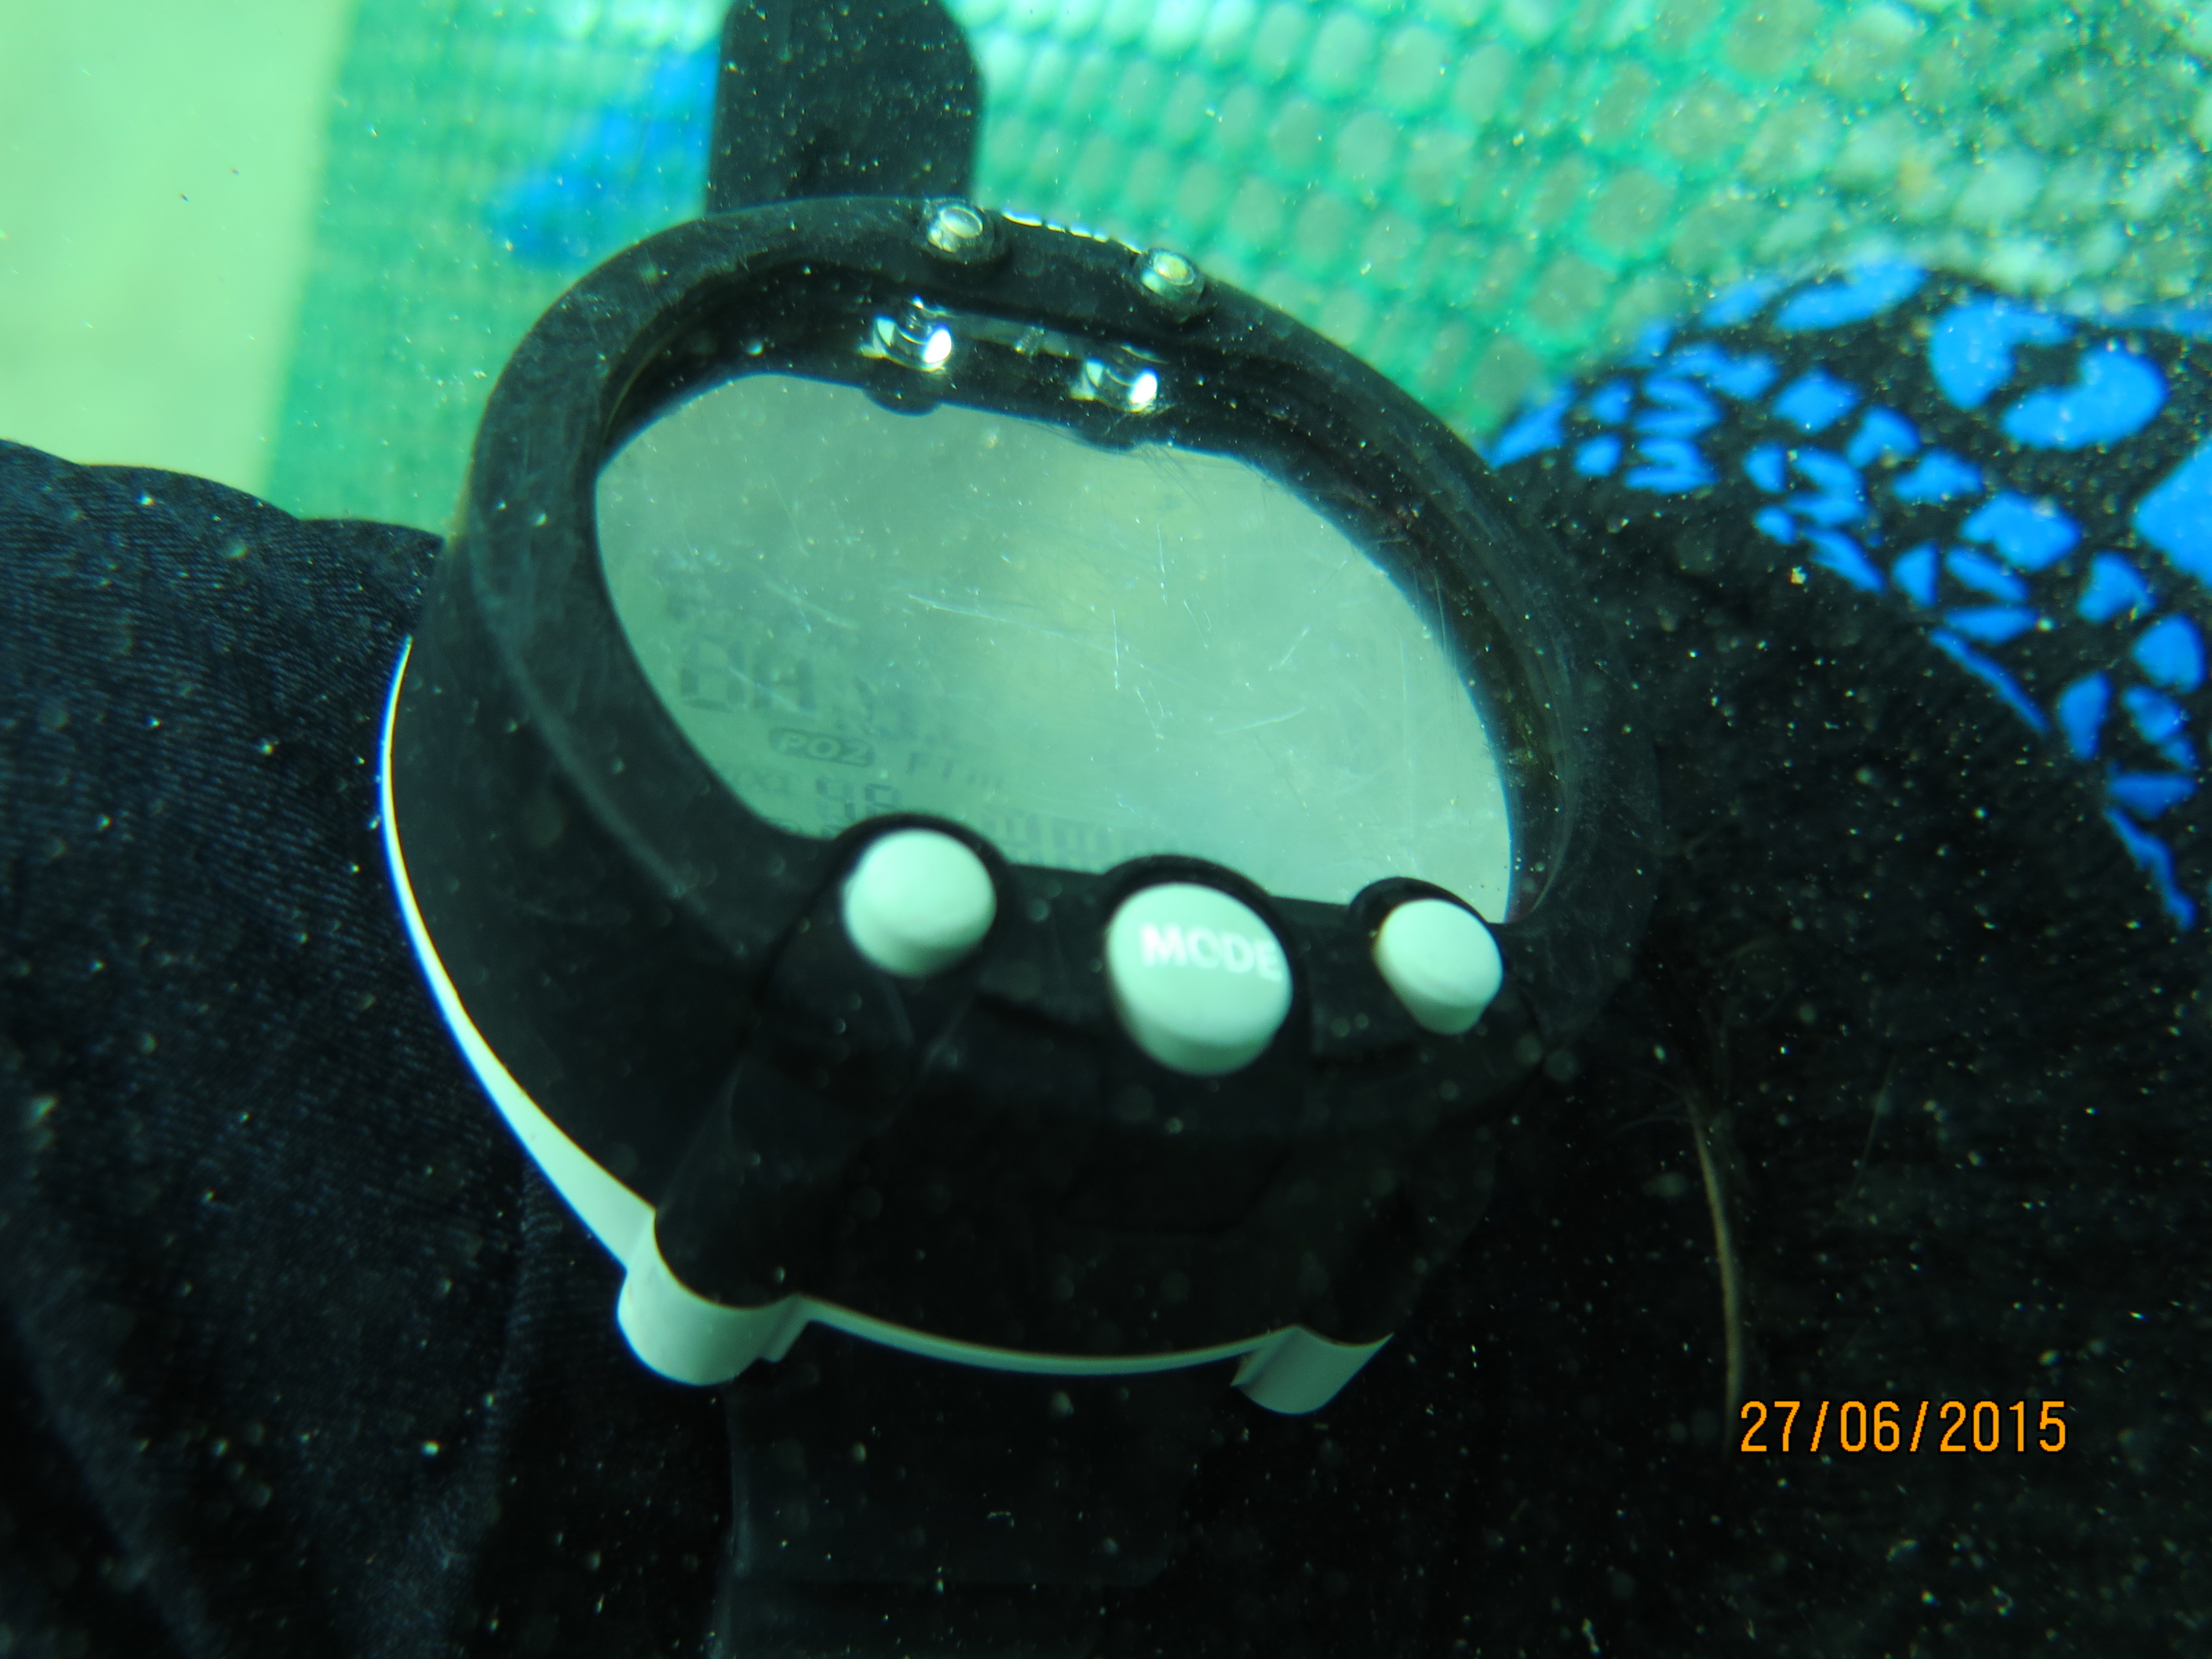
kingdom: Animalia
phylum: Cnidaria
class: Anthozoa
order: Malacalcyonacea
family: Gorgoniidae
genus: Gorgonia
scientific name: Gorgonia ventalina
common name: Common sea fan
